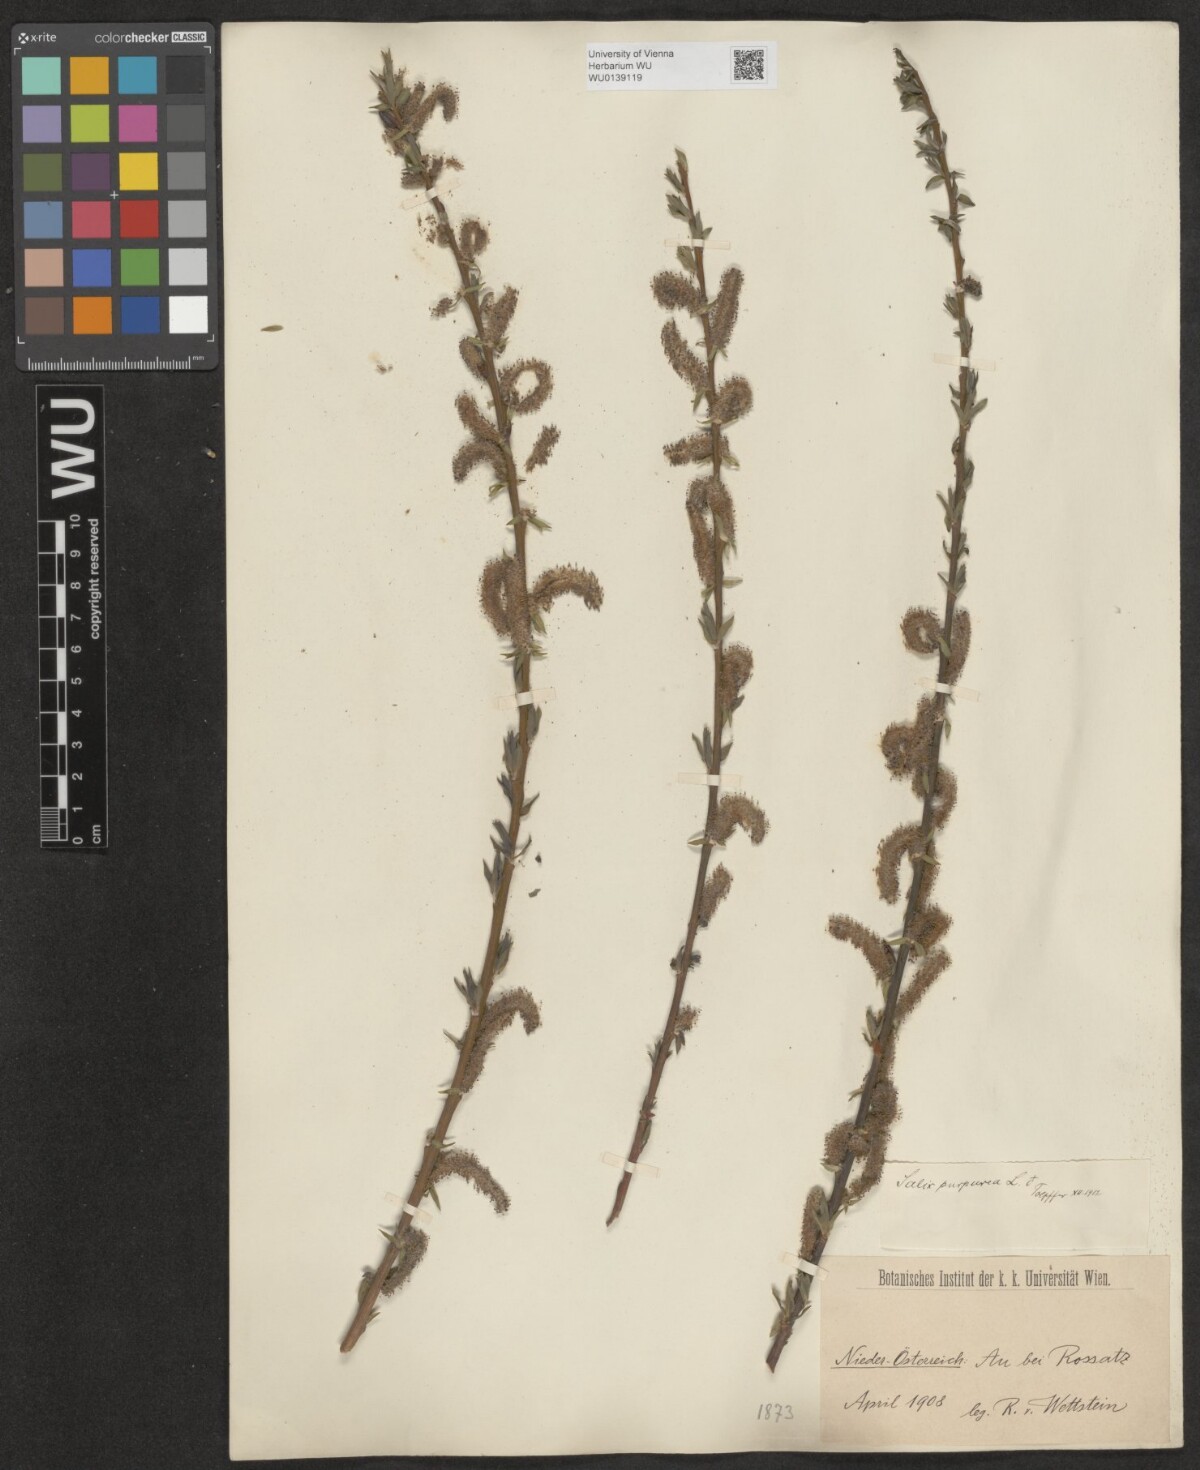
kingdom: Plantae
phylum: Tracheophyta
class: Magnoliopsida
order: Malpighiales
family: Salicaceae
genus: Salix
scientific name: Salix purpurea
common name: Purple willow
